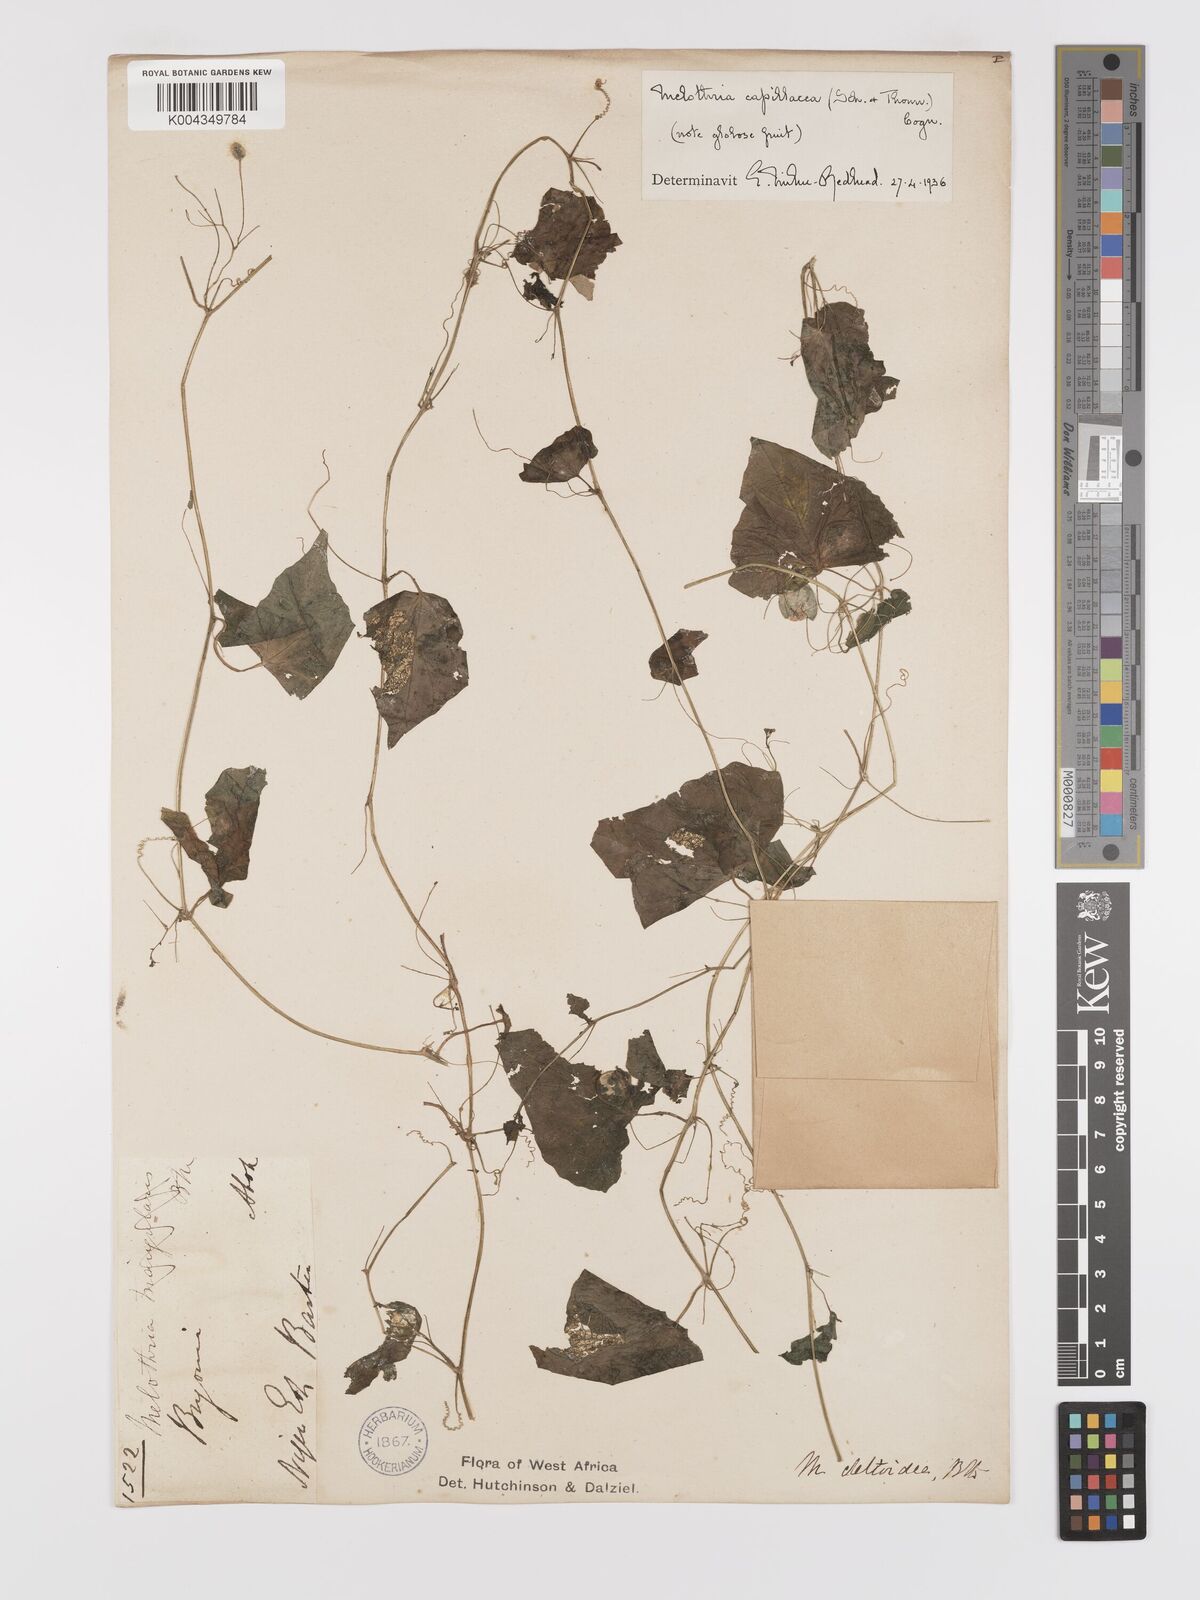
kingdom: Plantae
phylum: Tracheophyta
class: Magnoliopsida
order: Cucurbitales
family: Cucurbitaceae
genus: Zehneria
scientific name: Zehneria capillacea
